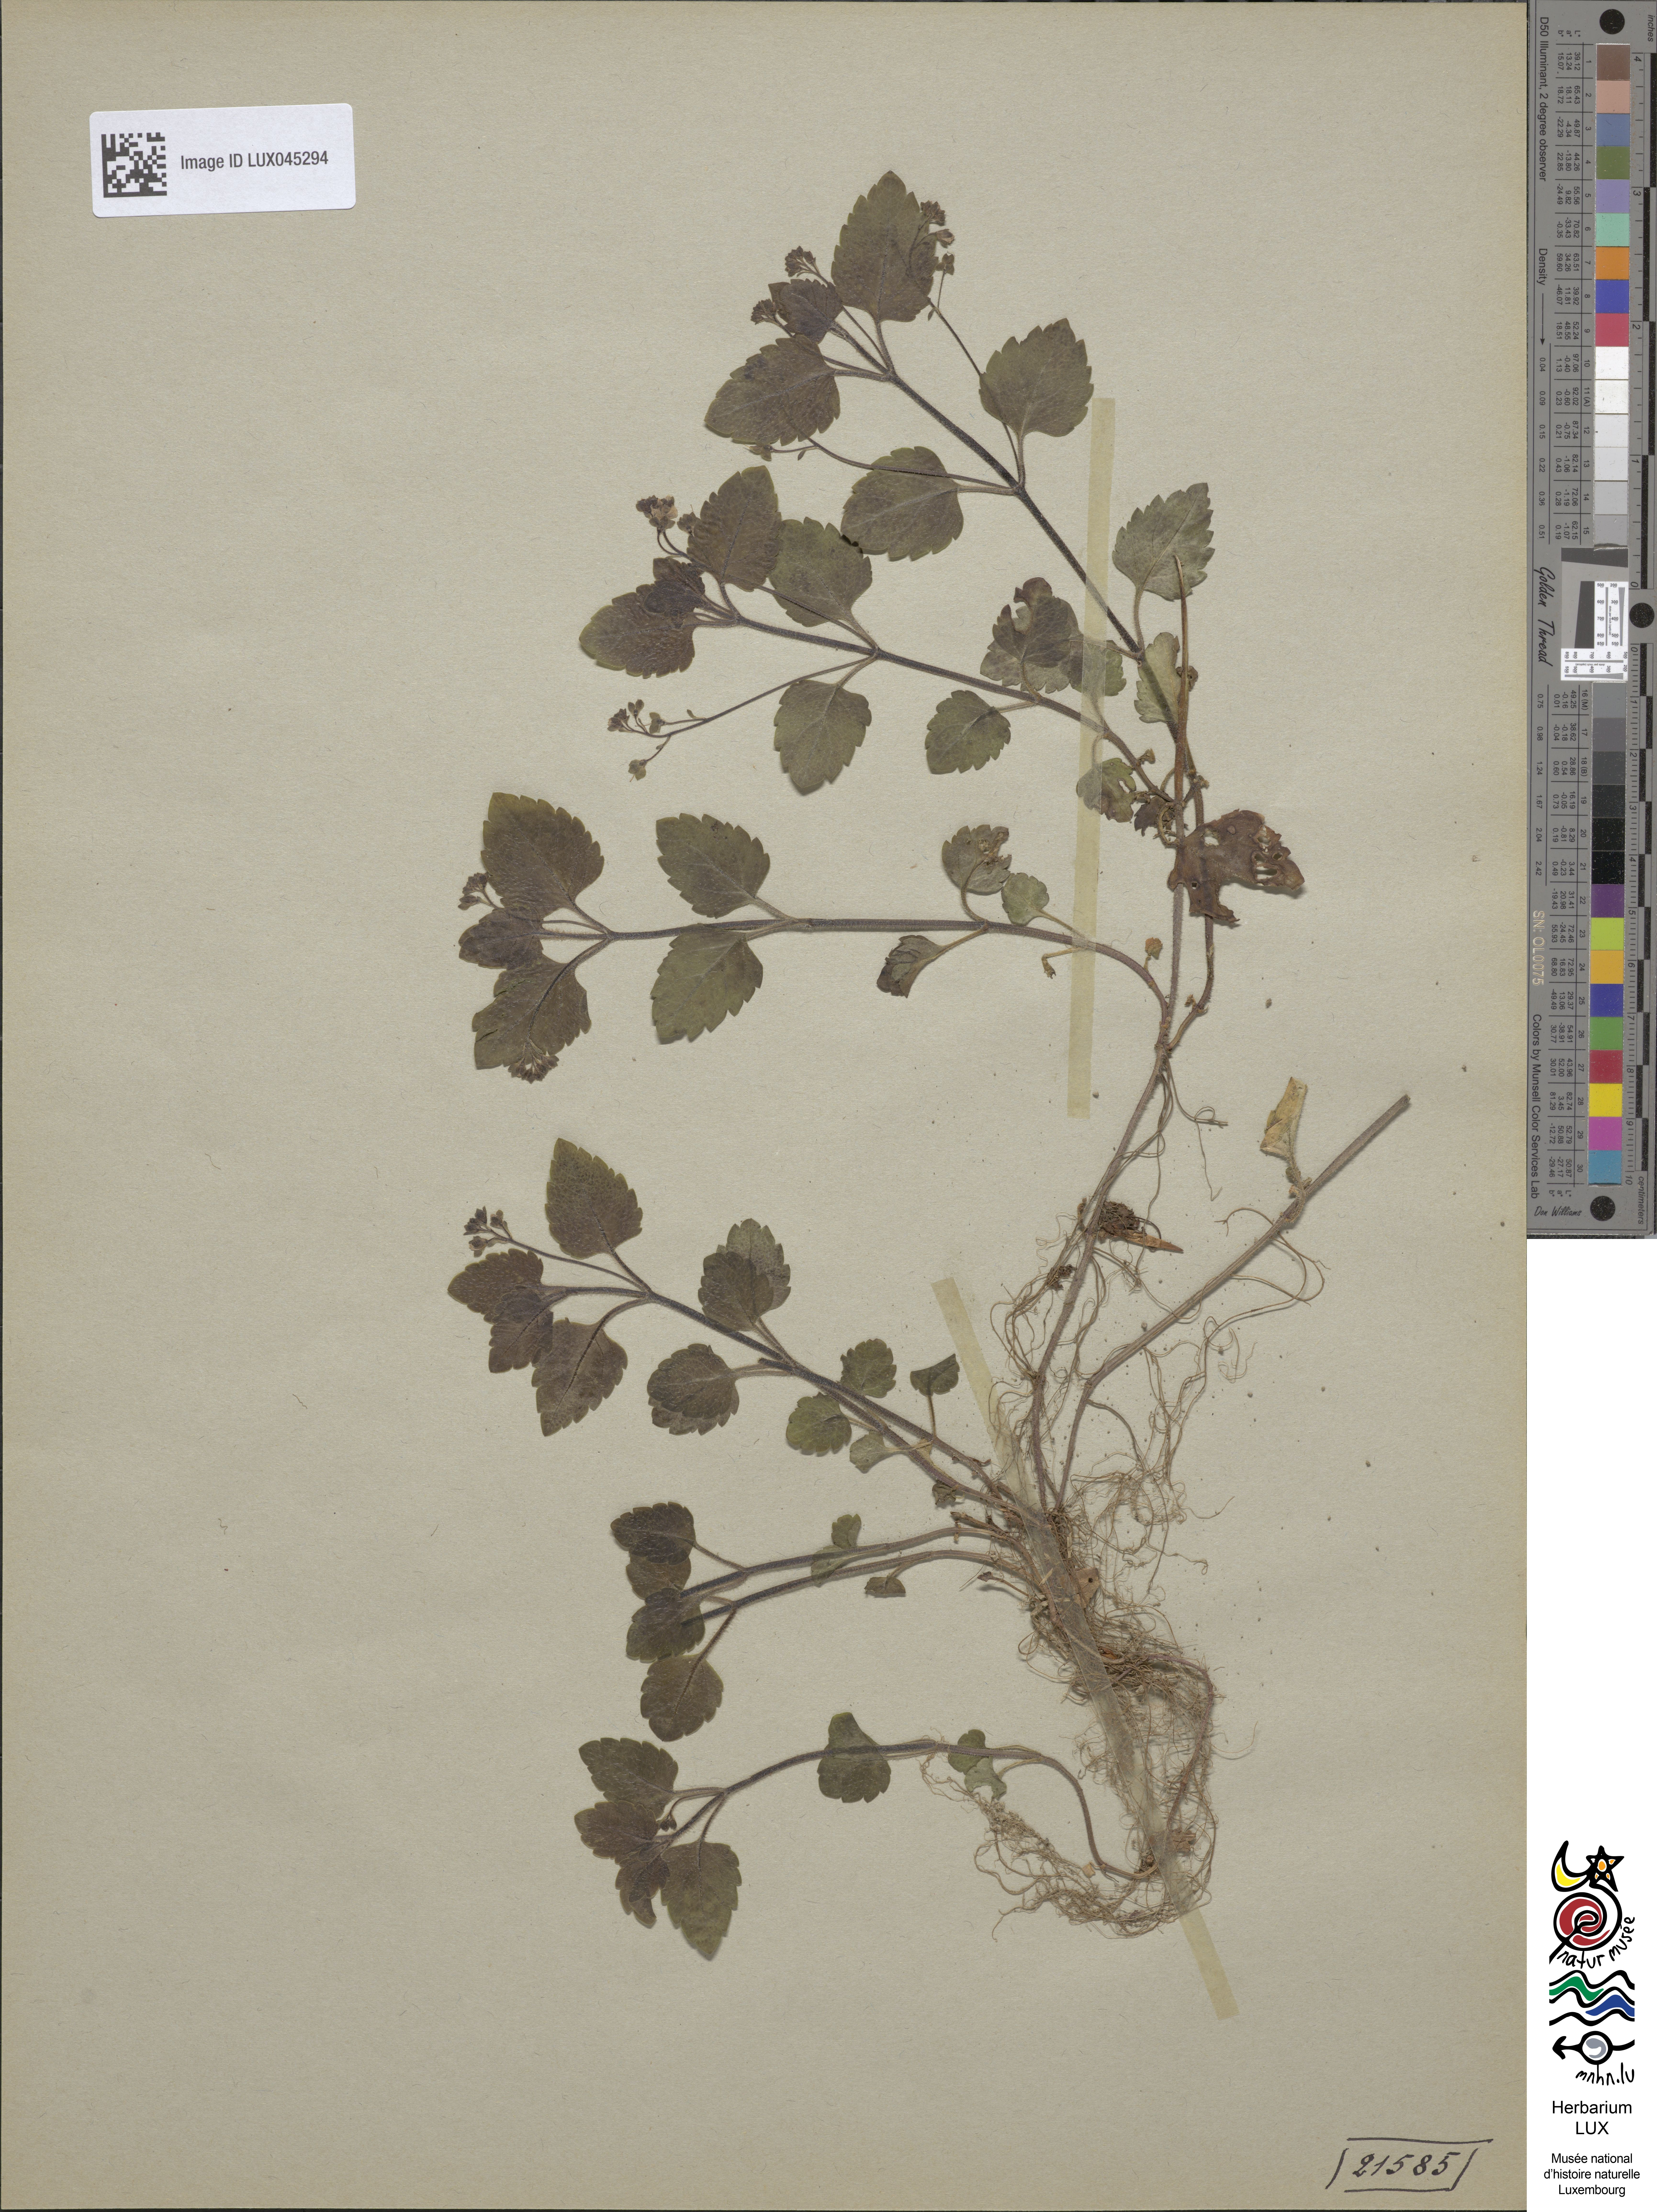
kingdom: Plantae
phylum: Tracheophyta
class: Magnoliopsida
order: Lamiales
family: Plantaginaceae
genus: Veronica
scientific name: Veronica montana
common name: Wood speedwell
